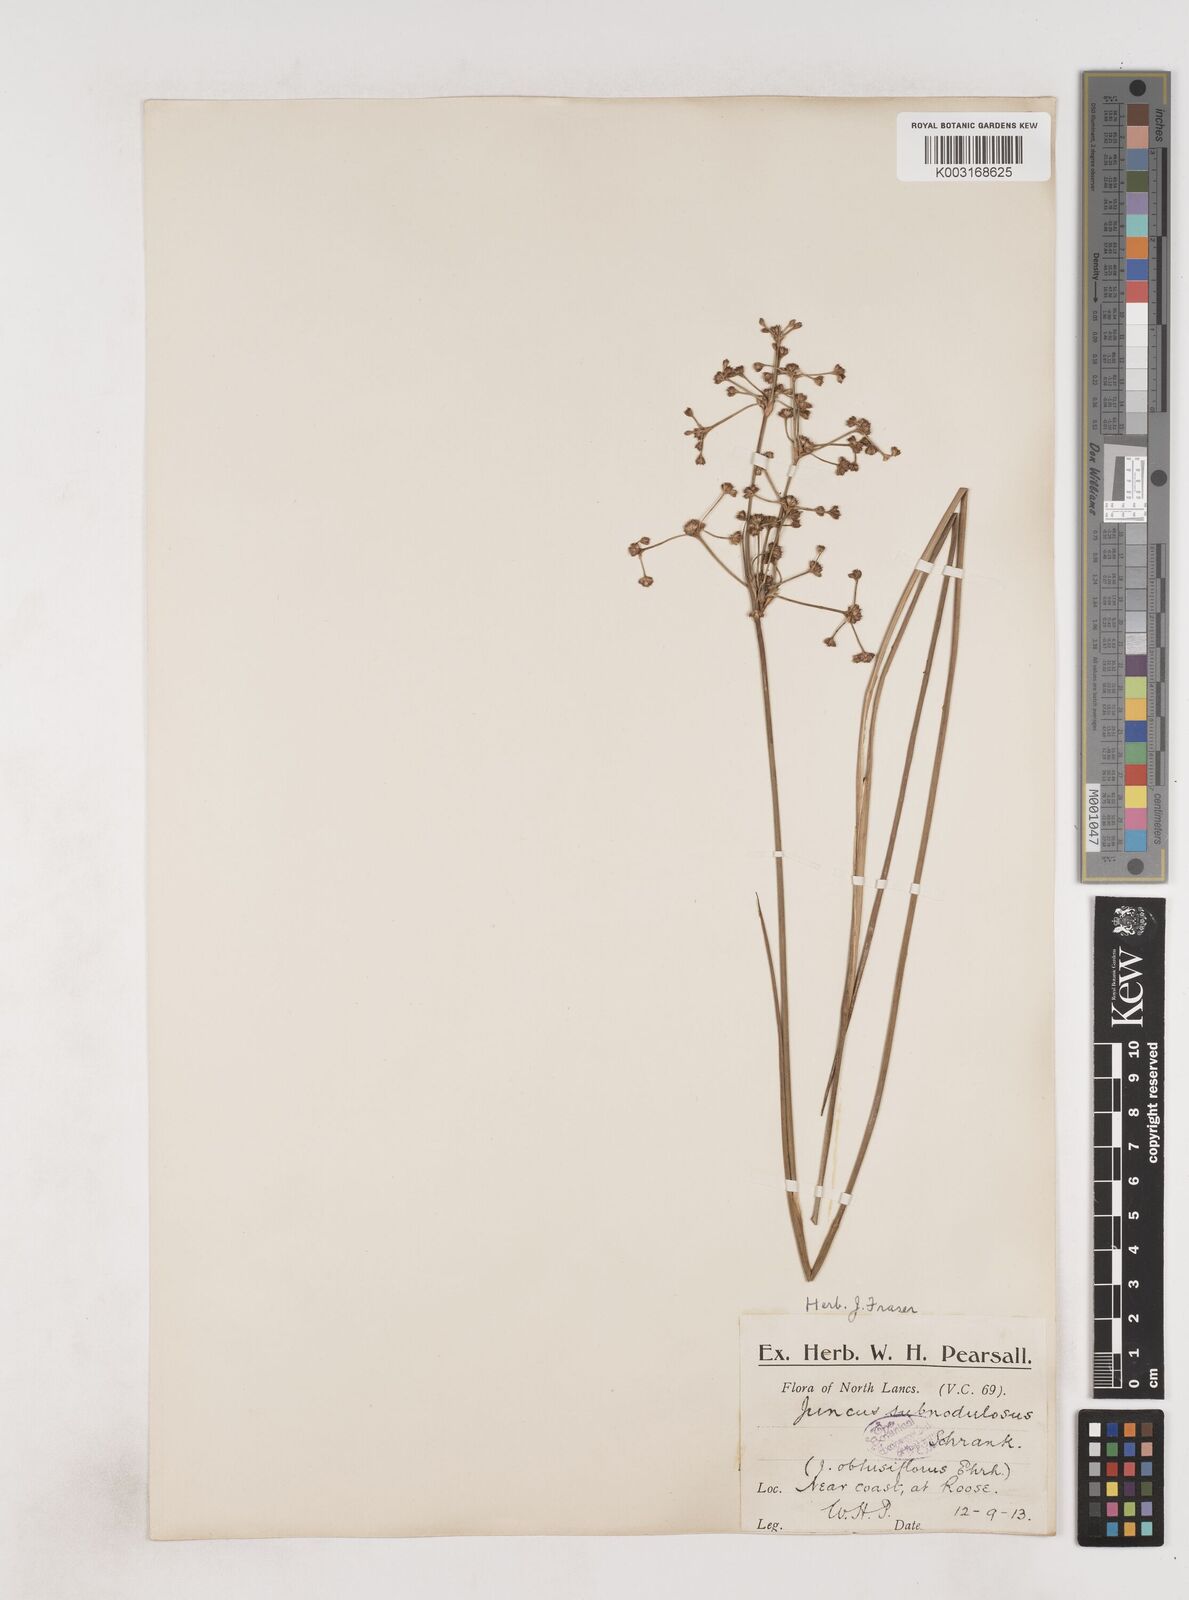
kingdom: Plantae
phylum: Tracheophyta
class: Liliopsida
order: Poales
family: Juncaceae
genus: Juncus
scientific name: Juncus subnodulosus
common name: Blunt-flowered rush
